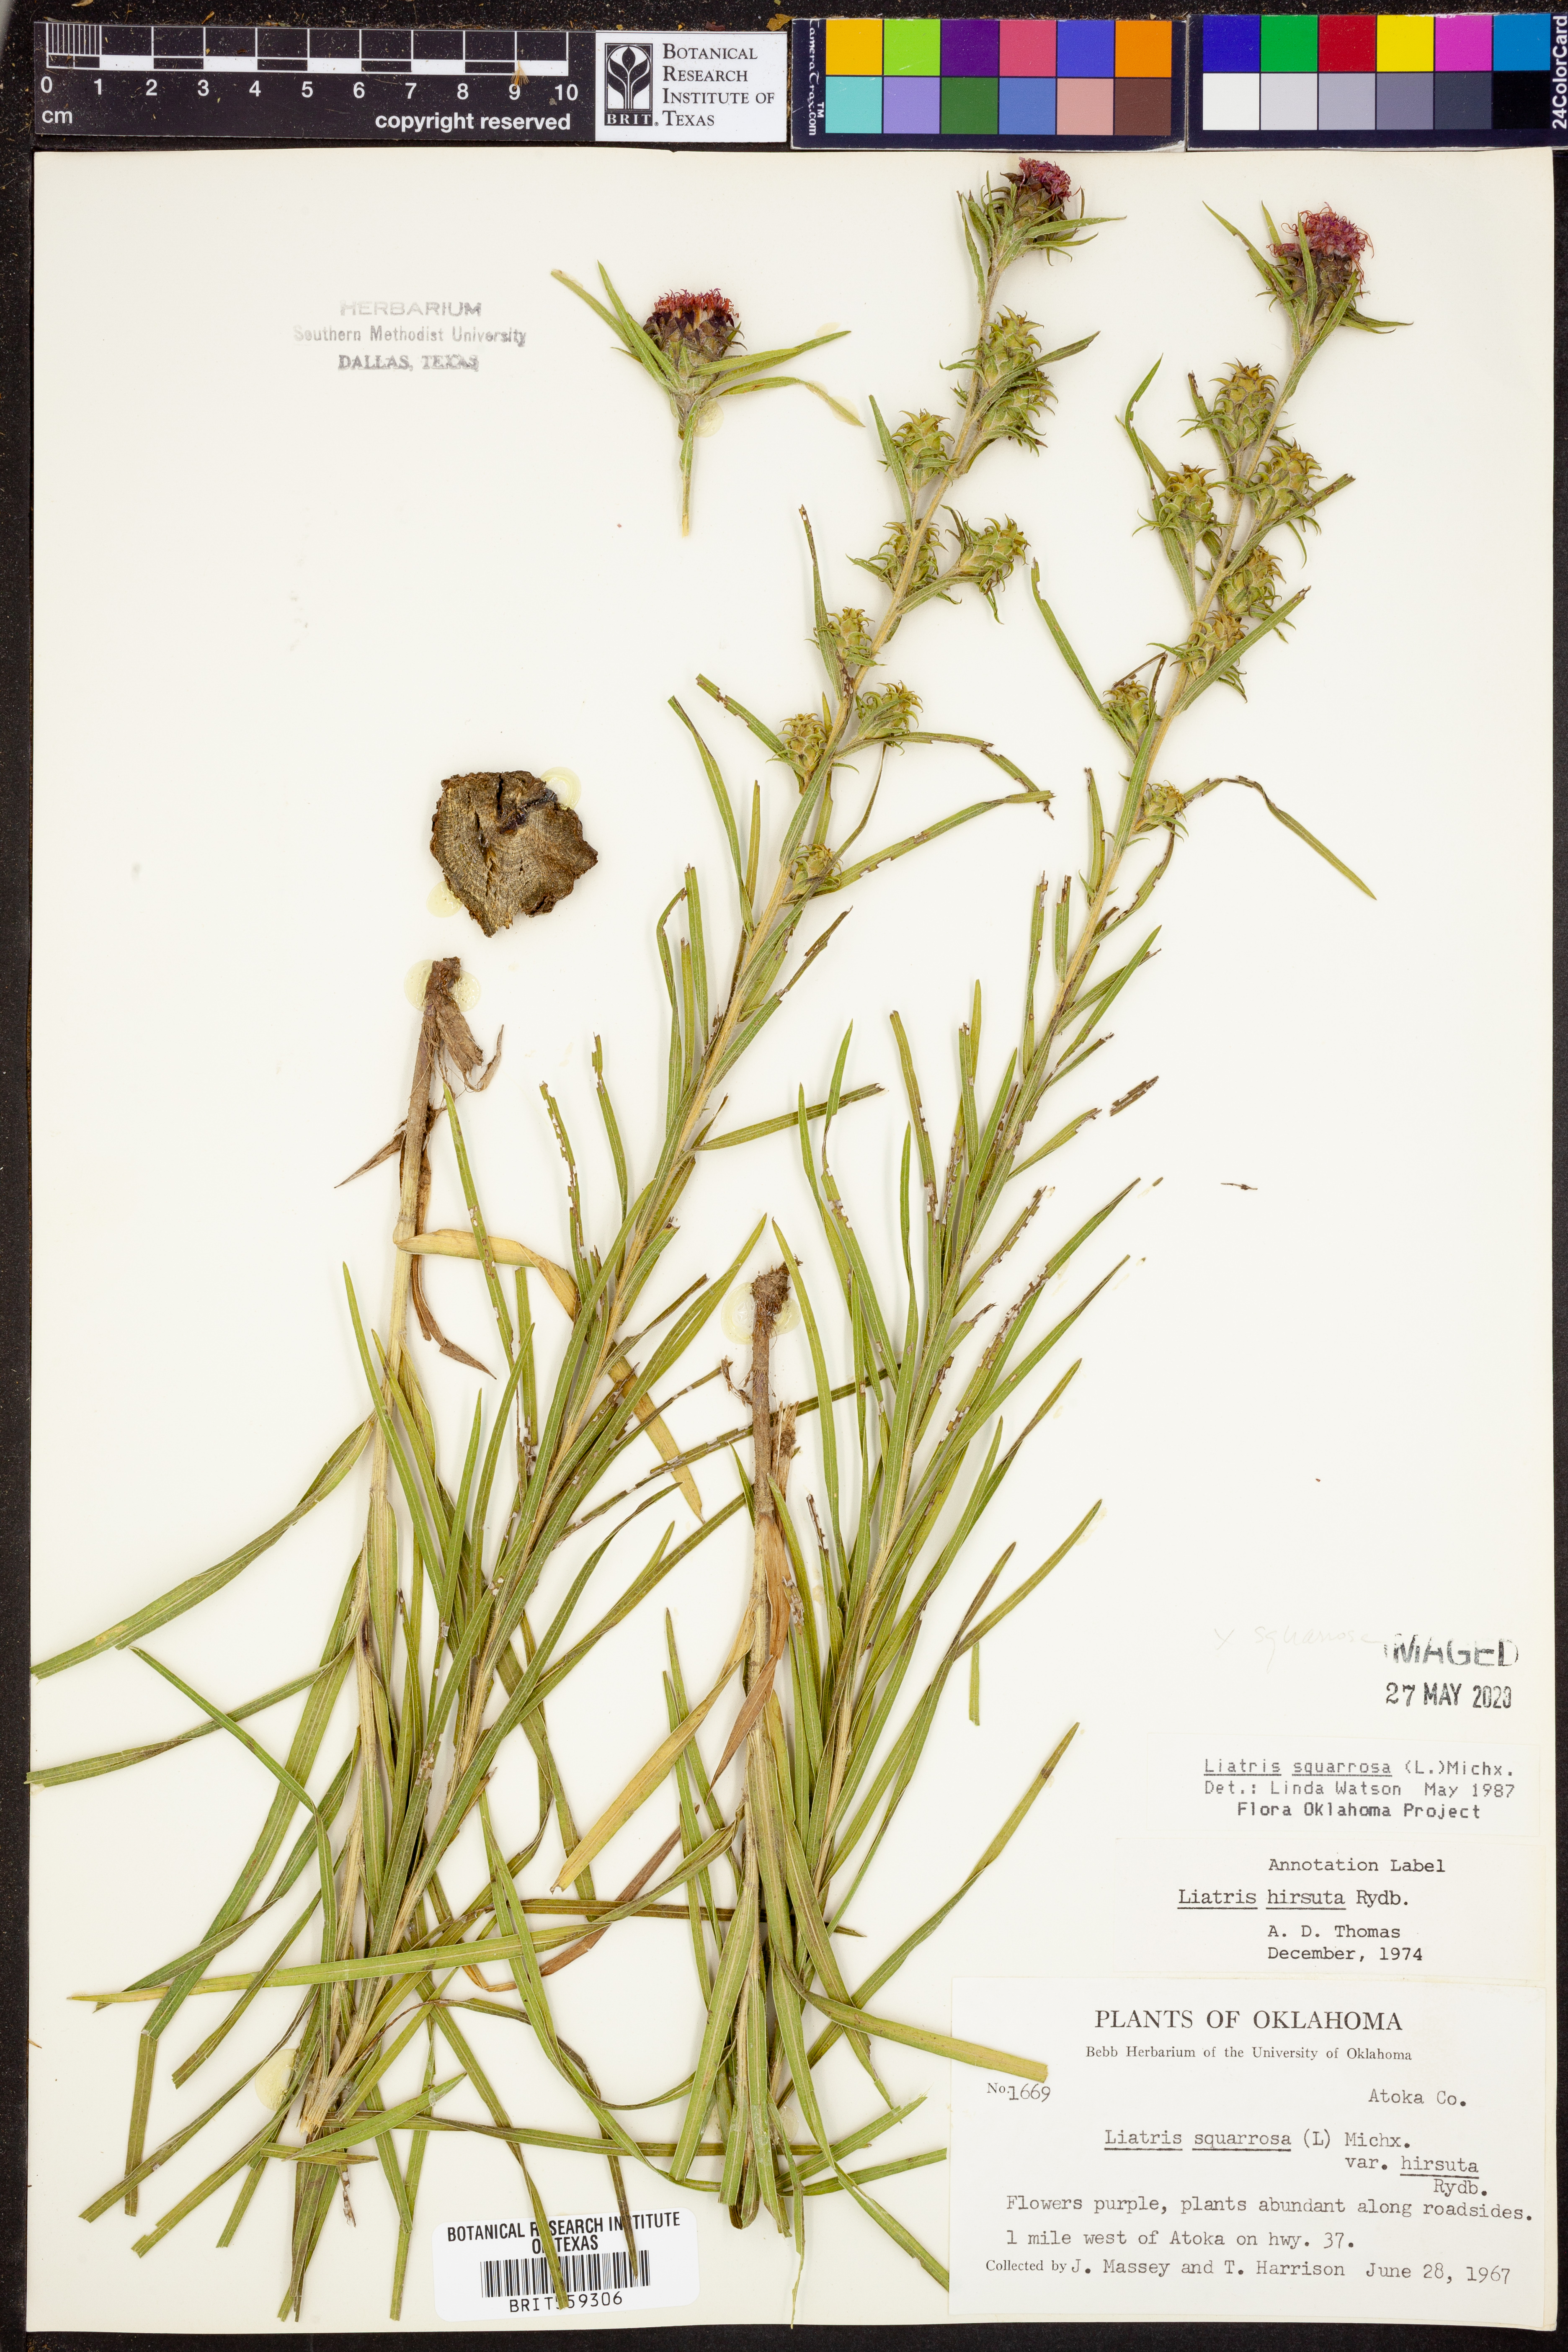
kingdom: Plantae
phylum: Tracheophyta
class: Magnoliopsida
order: Asterales
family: Asteraceae
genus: Liatris
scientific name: Liatris squarrosa
